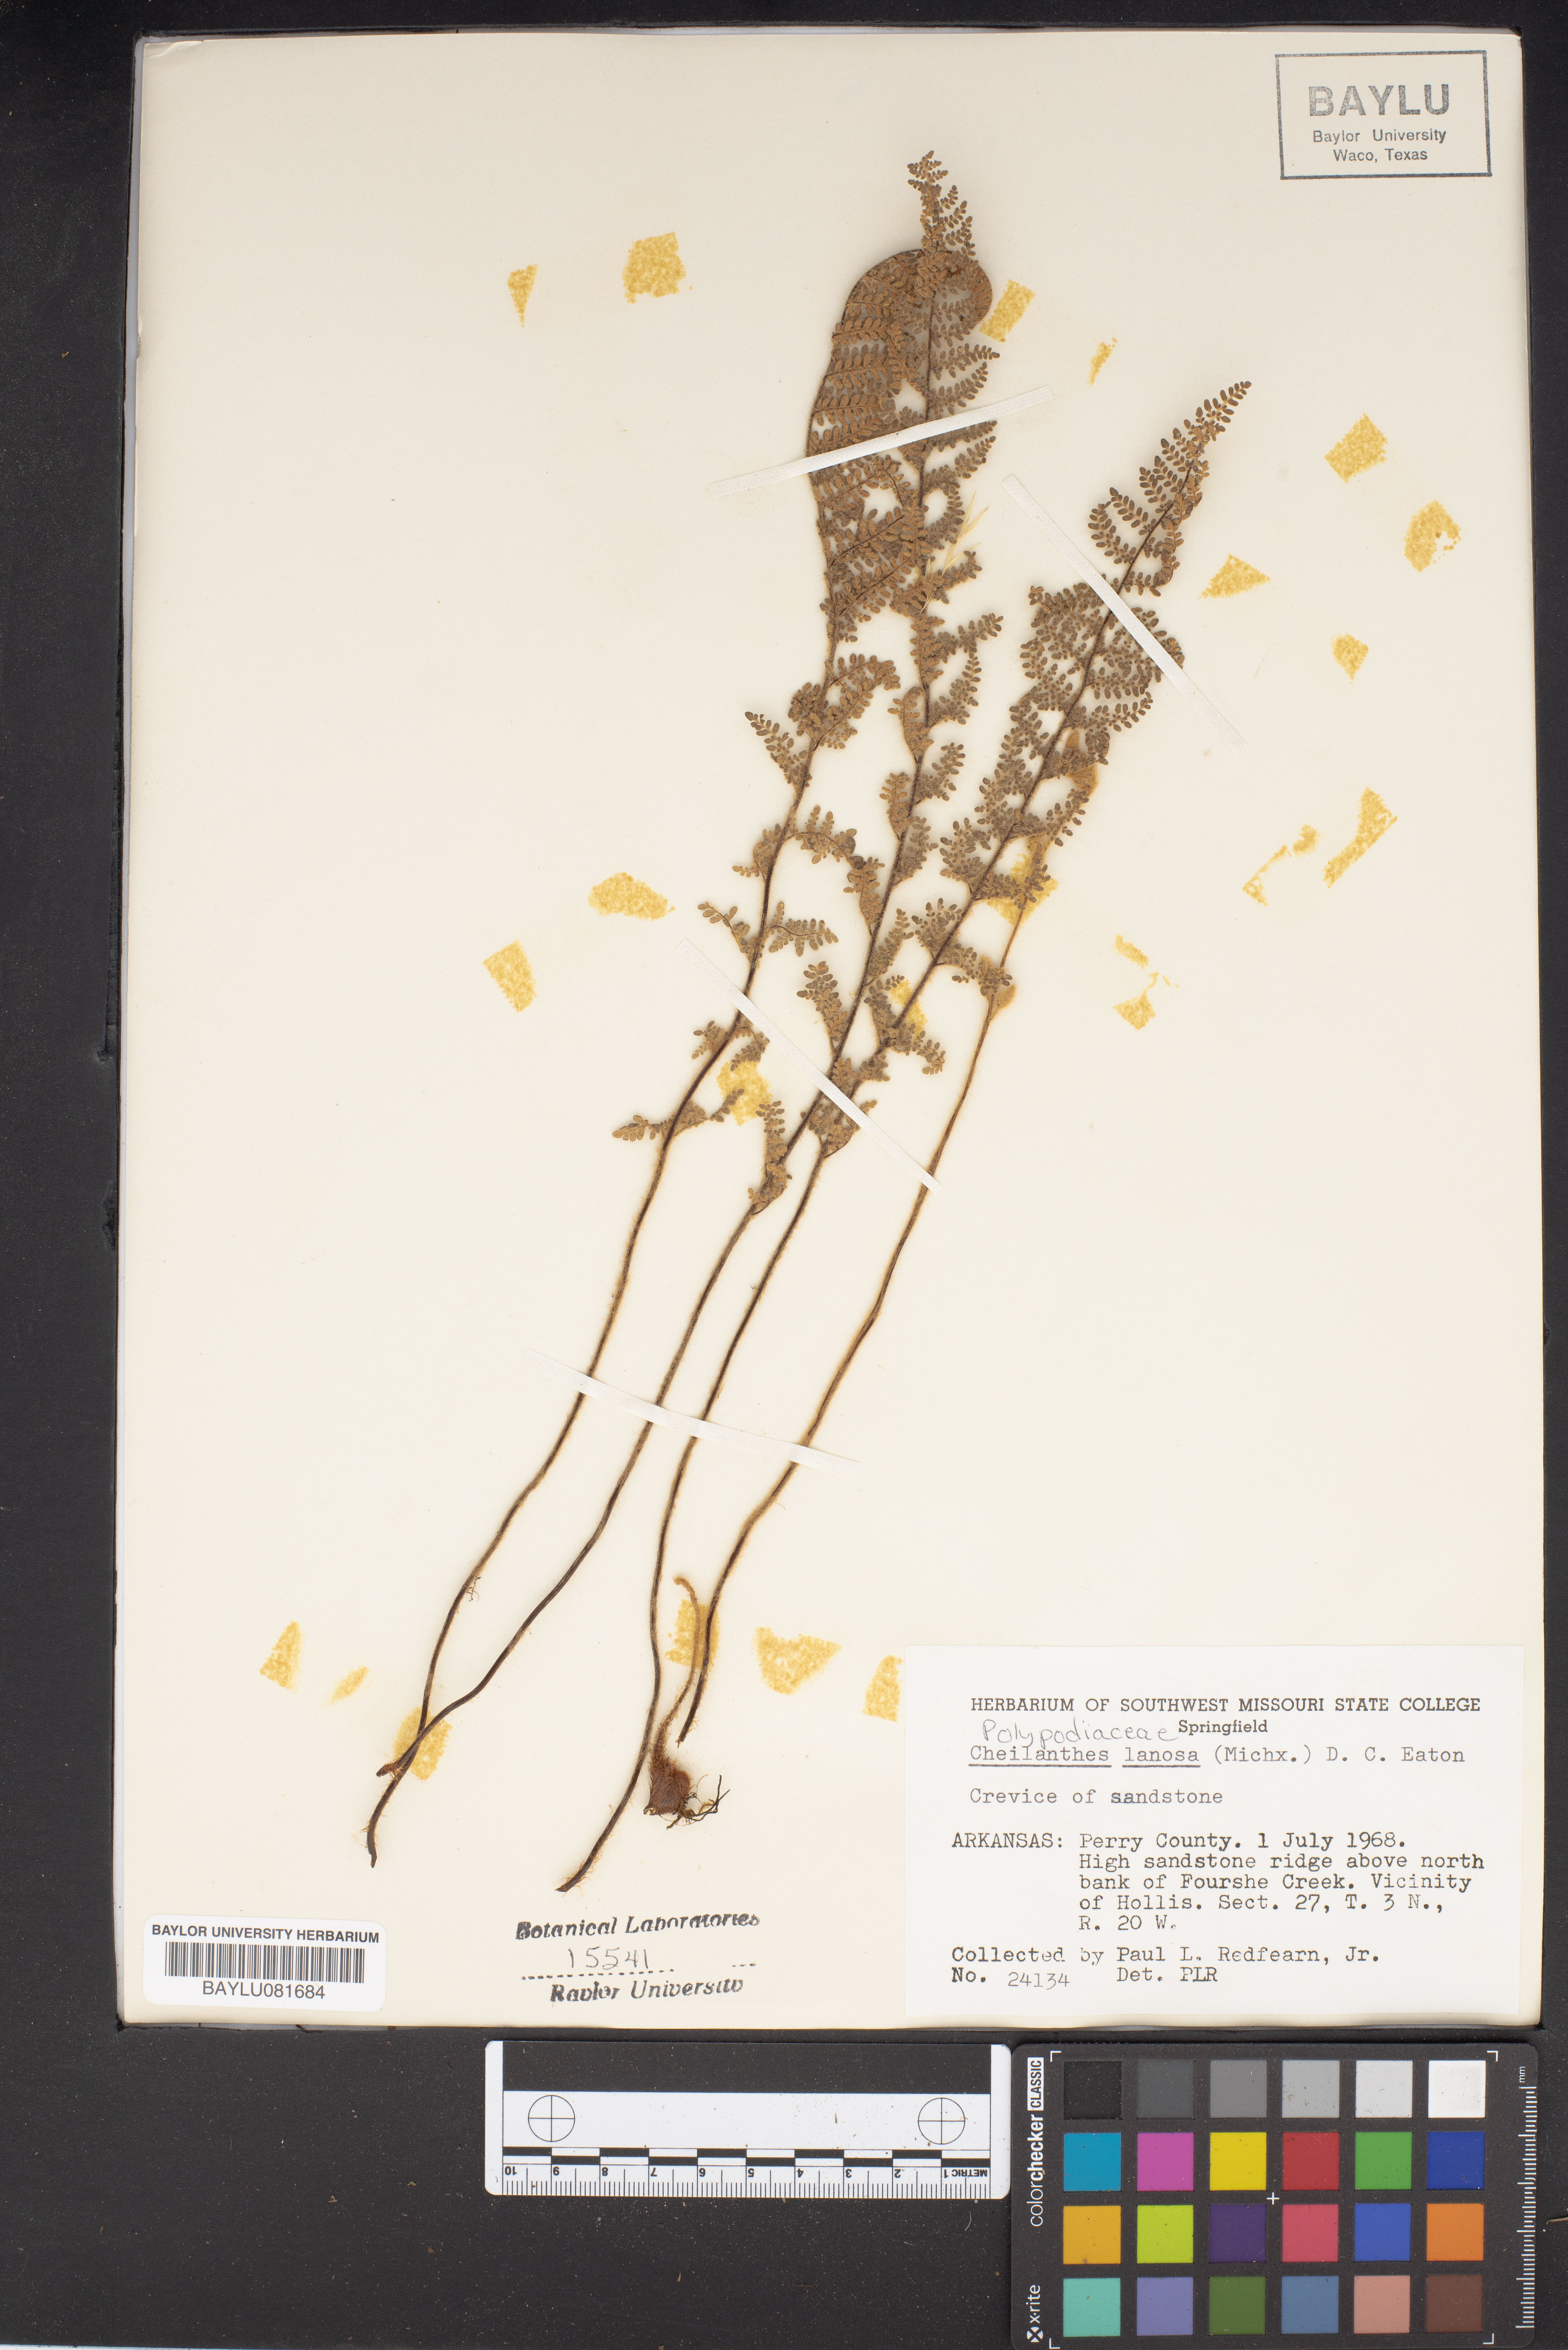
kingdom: Plantae
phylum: Tracheophyta
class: Polypodiopsida
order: Polypodiales
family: Pteridaceae
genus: Myriopteris
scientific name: Myriopteris lanosa
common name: Hairy lip fern
